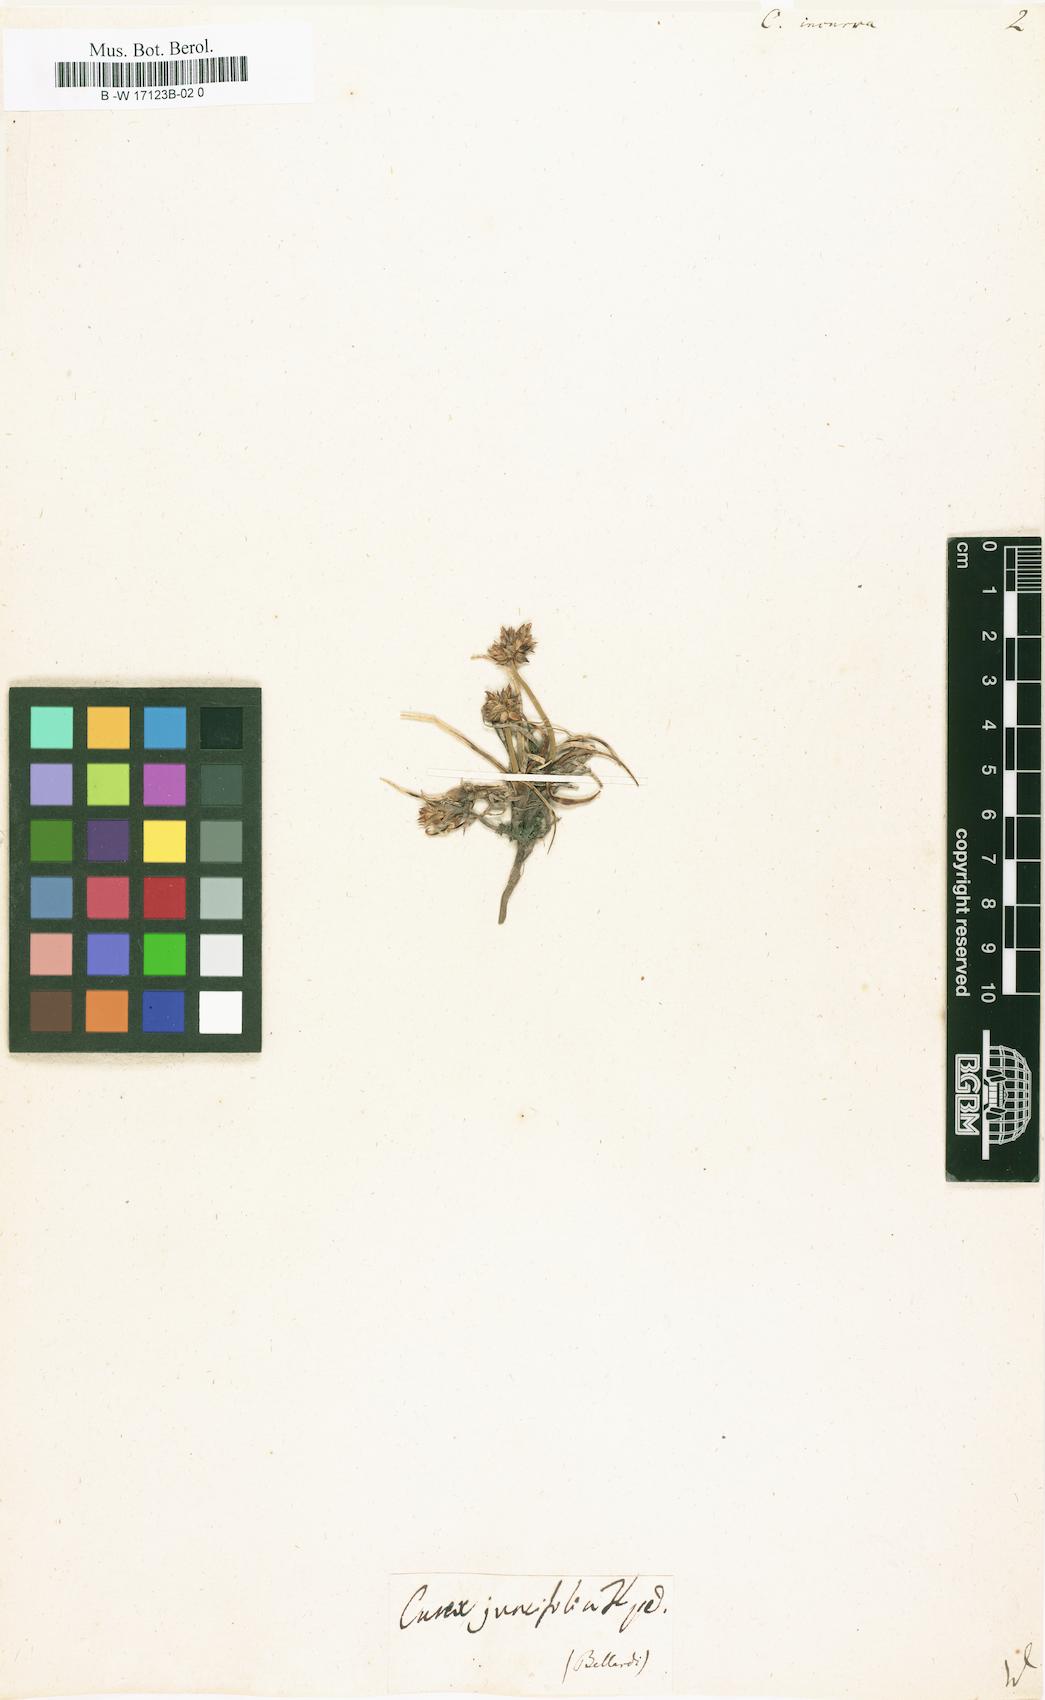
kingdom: Plantae
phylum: Tracheophyta
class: Liliopsida
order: Poales
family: Cyperaceae
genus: Carex
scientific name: Carex
